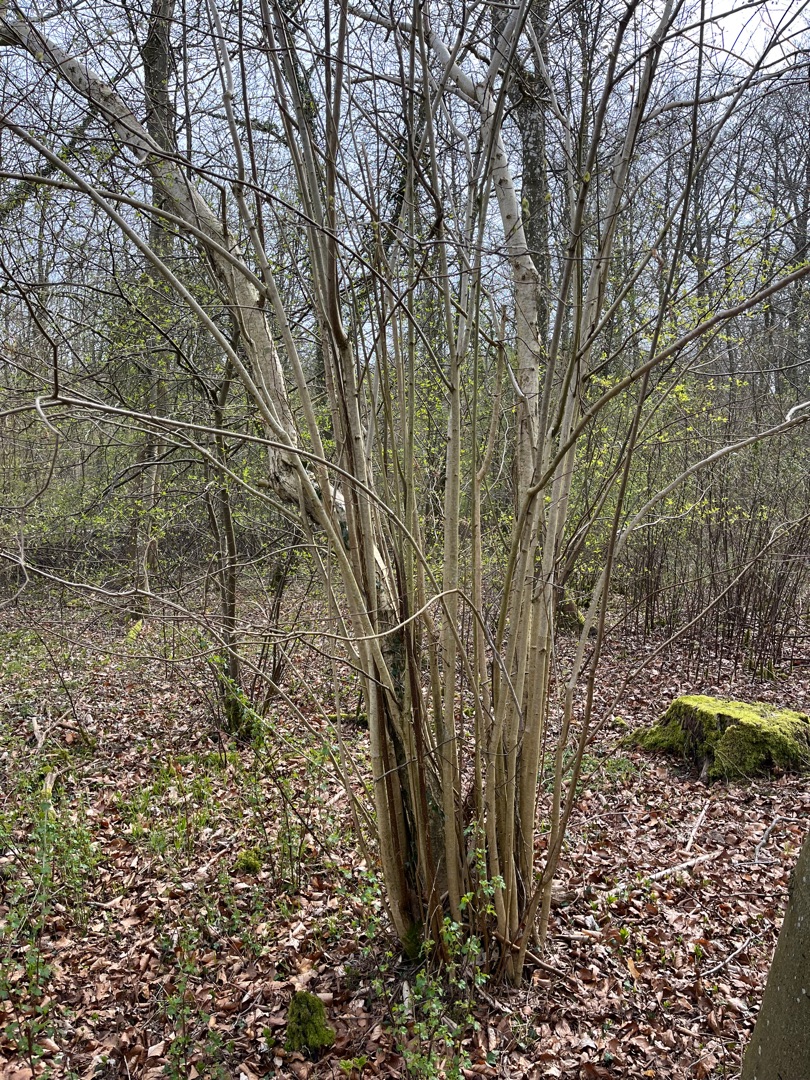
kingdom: Plantae
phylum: Tracheophyta
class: Magnoliopsida
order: Fagales
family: Betulaceae
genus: Corylus
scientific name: Corylus avellana
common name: Hassel
